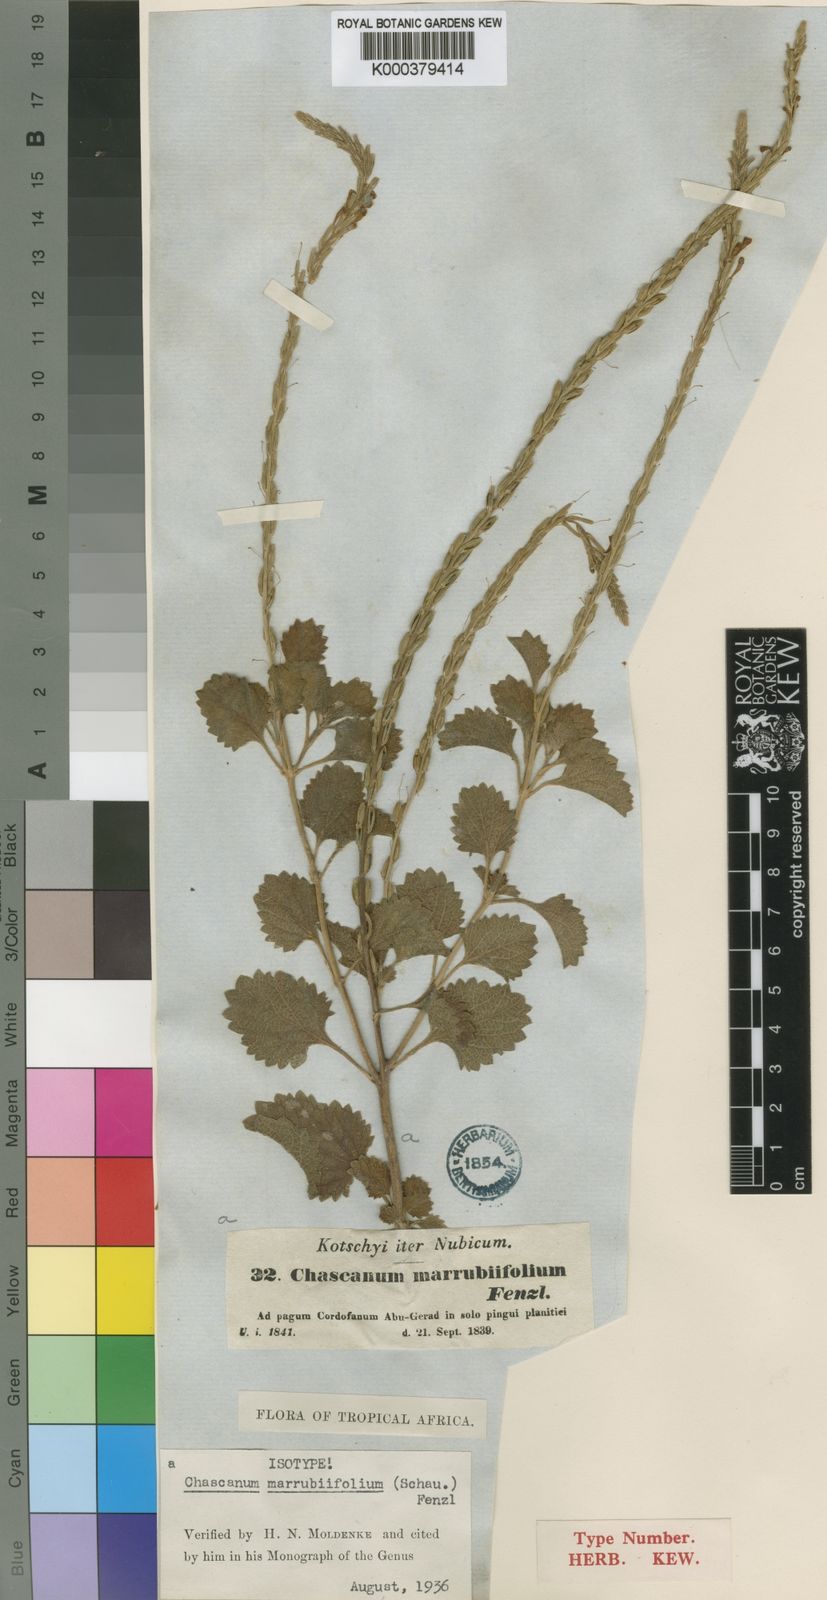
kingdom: Plantae
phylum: Tracheophyta
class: Magnoliopsida
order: Lamiales
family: Verbenaceae
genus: Chascanum
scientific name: Chascanum marrubiifolium
